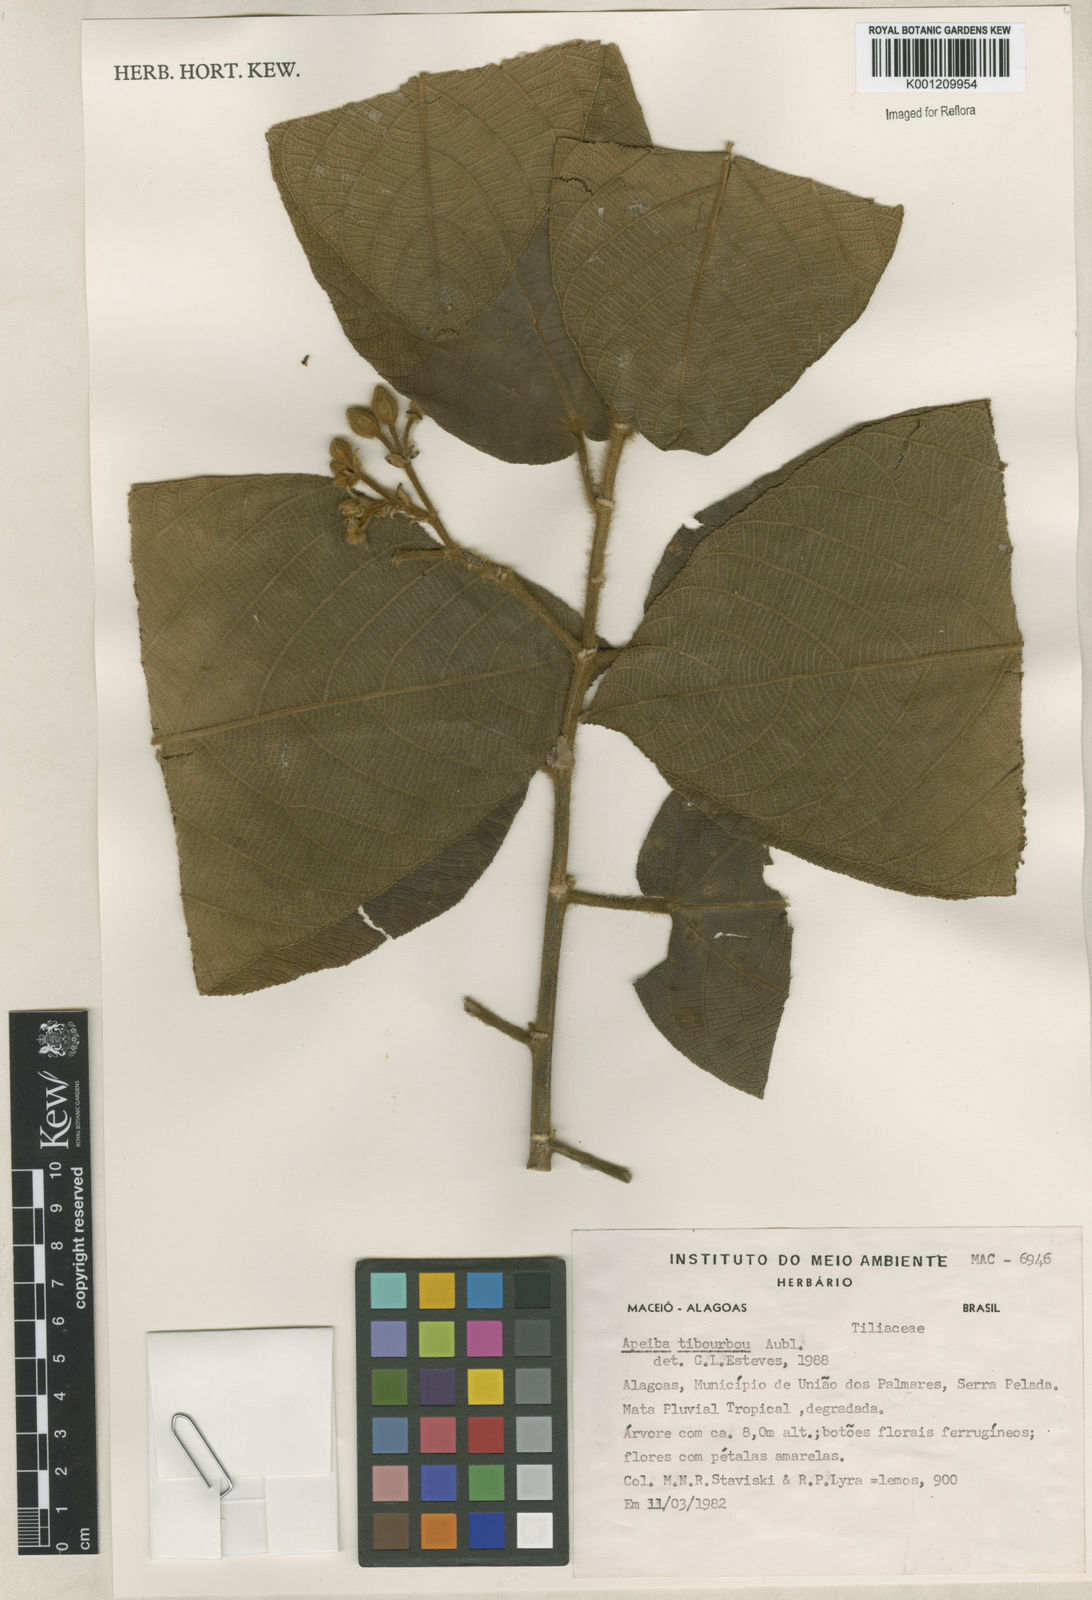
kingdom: Plantae
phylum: Tracheophyta
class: Magnoliopsida
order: Malvales
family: Malvaceae
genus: Apeiba
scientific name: Apeiba tibourbou
